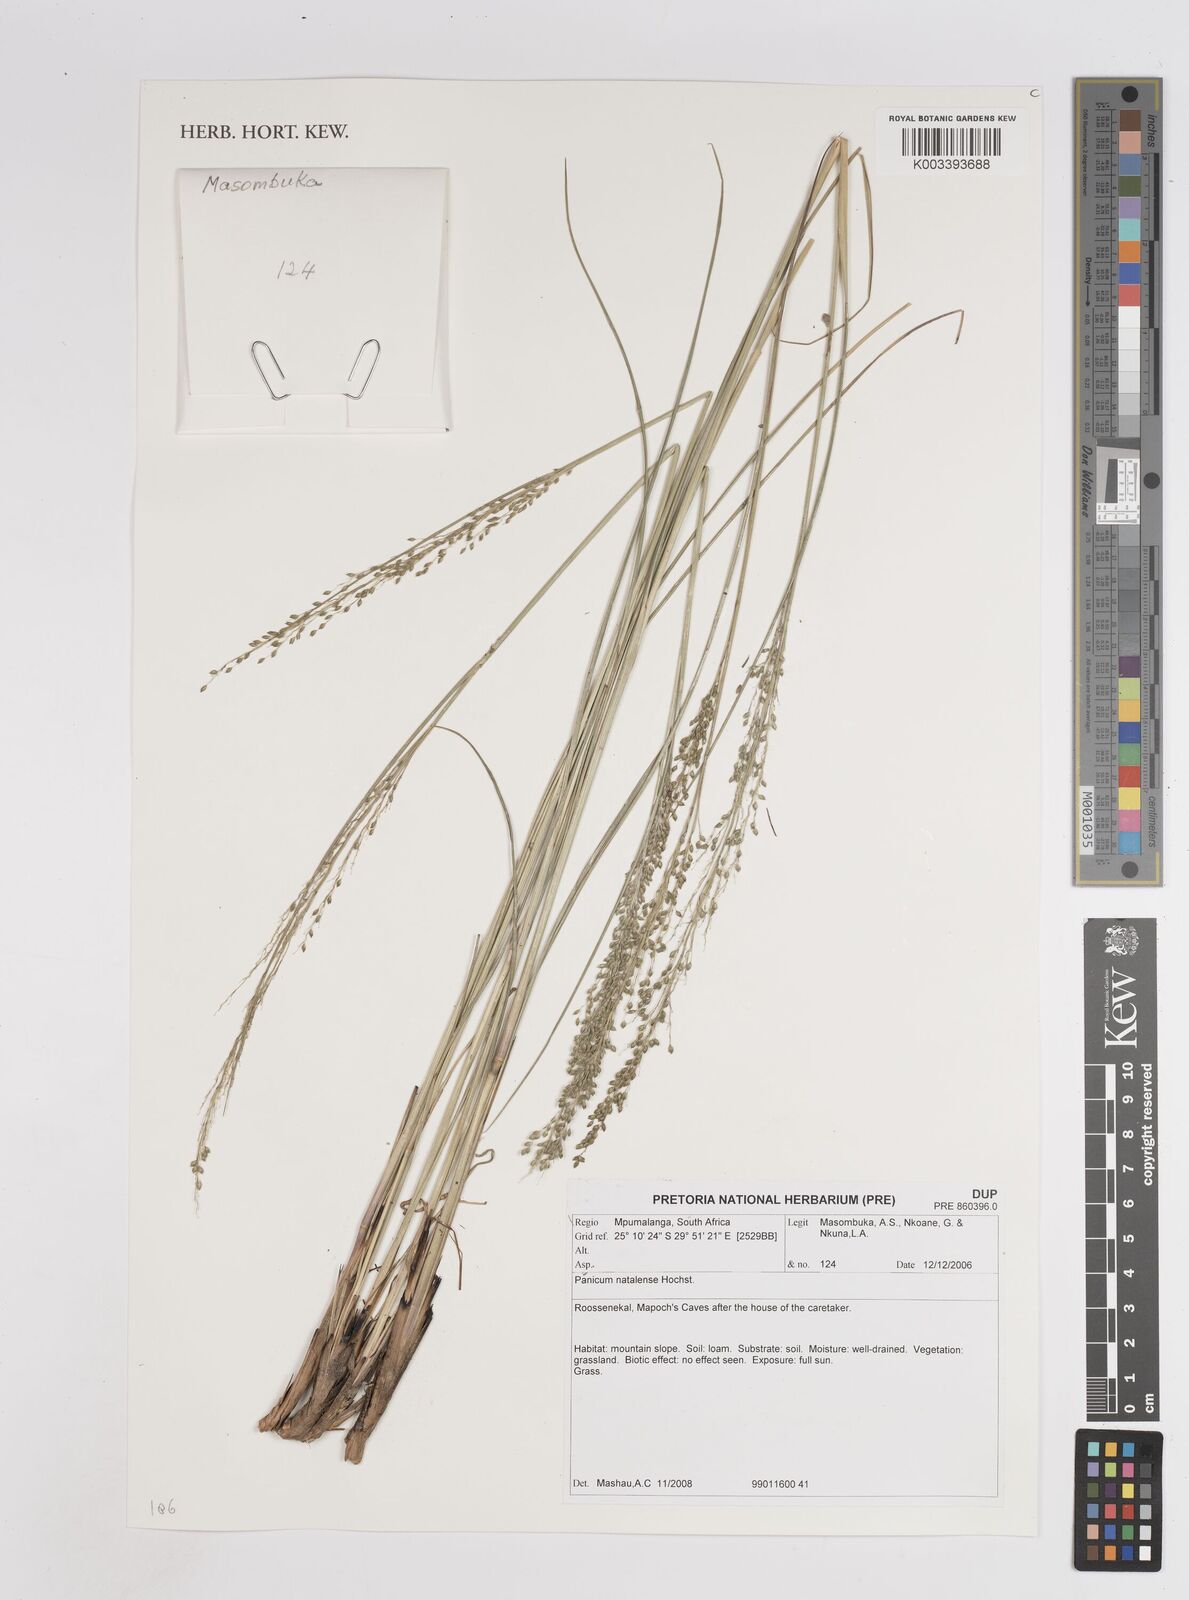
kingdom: Plantae
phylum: Tracheophyta
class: Liliopsida
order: Poales
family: Poaceae
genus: Trichanthecium
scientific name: Trichanthecium natalense
